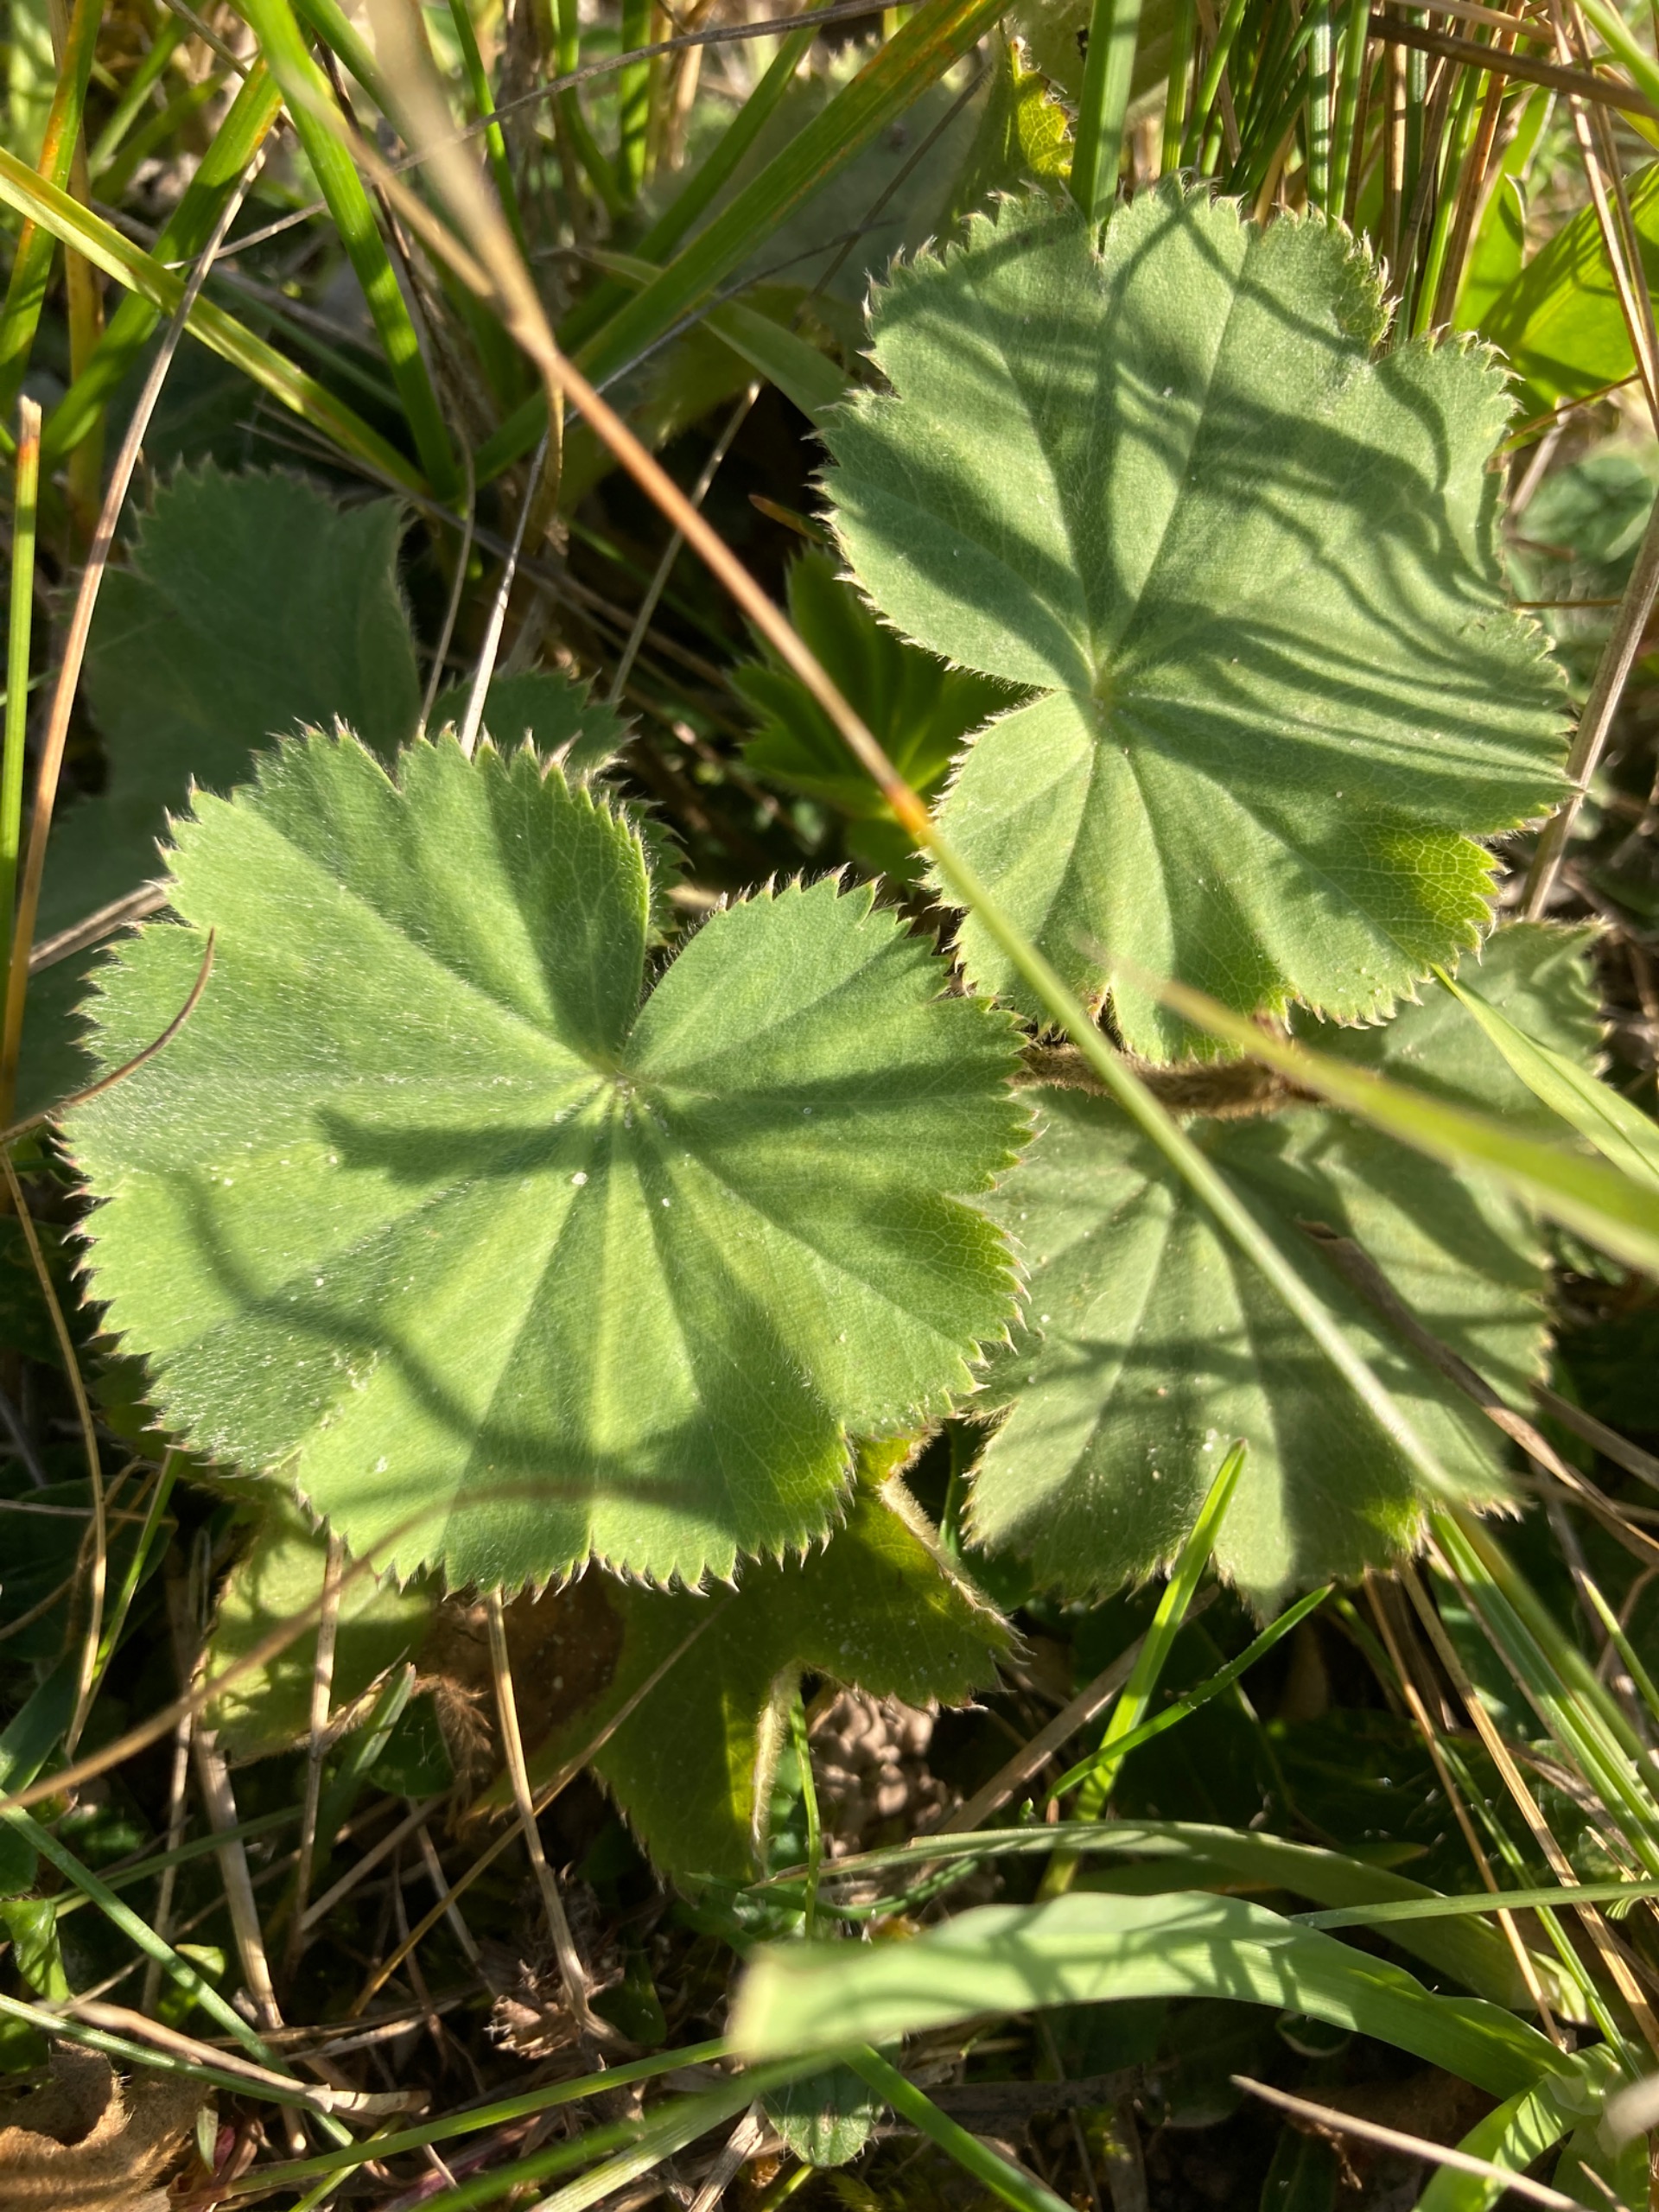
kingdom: Plantae
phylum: Tracheophyta
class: Magnoliopsida
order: Rosales
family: Rosaceae
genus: Alchemilla
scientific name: Alchemilla mollis
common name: Lådden løvefod
